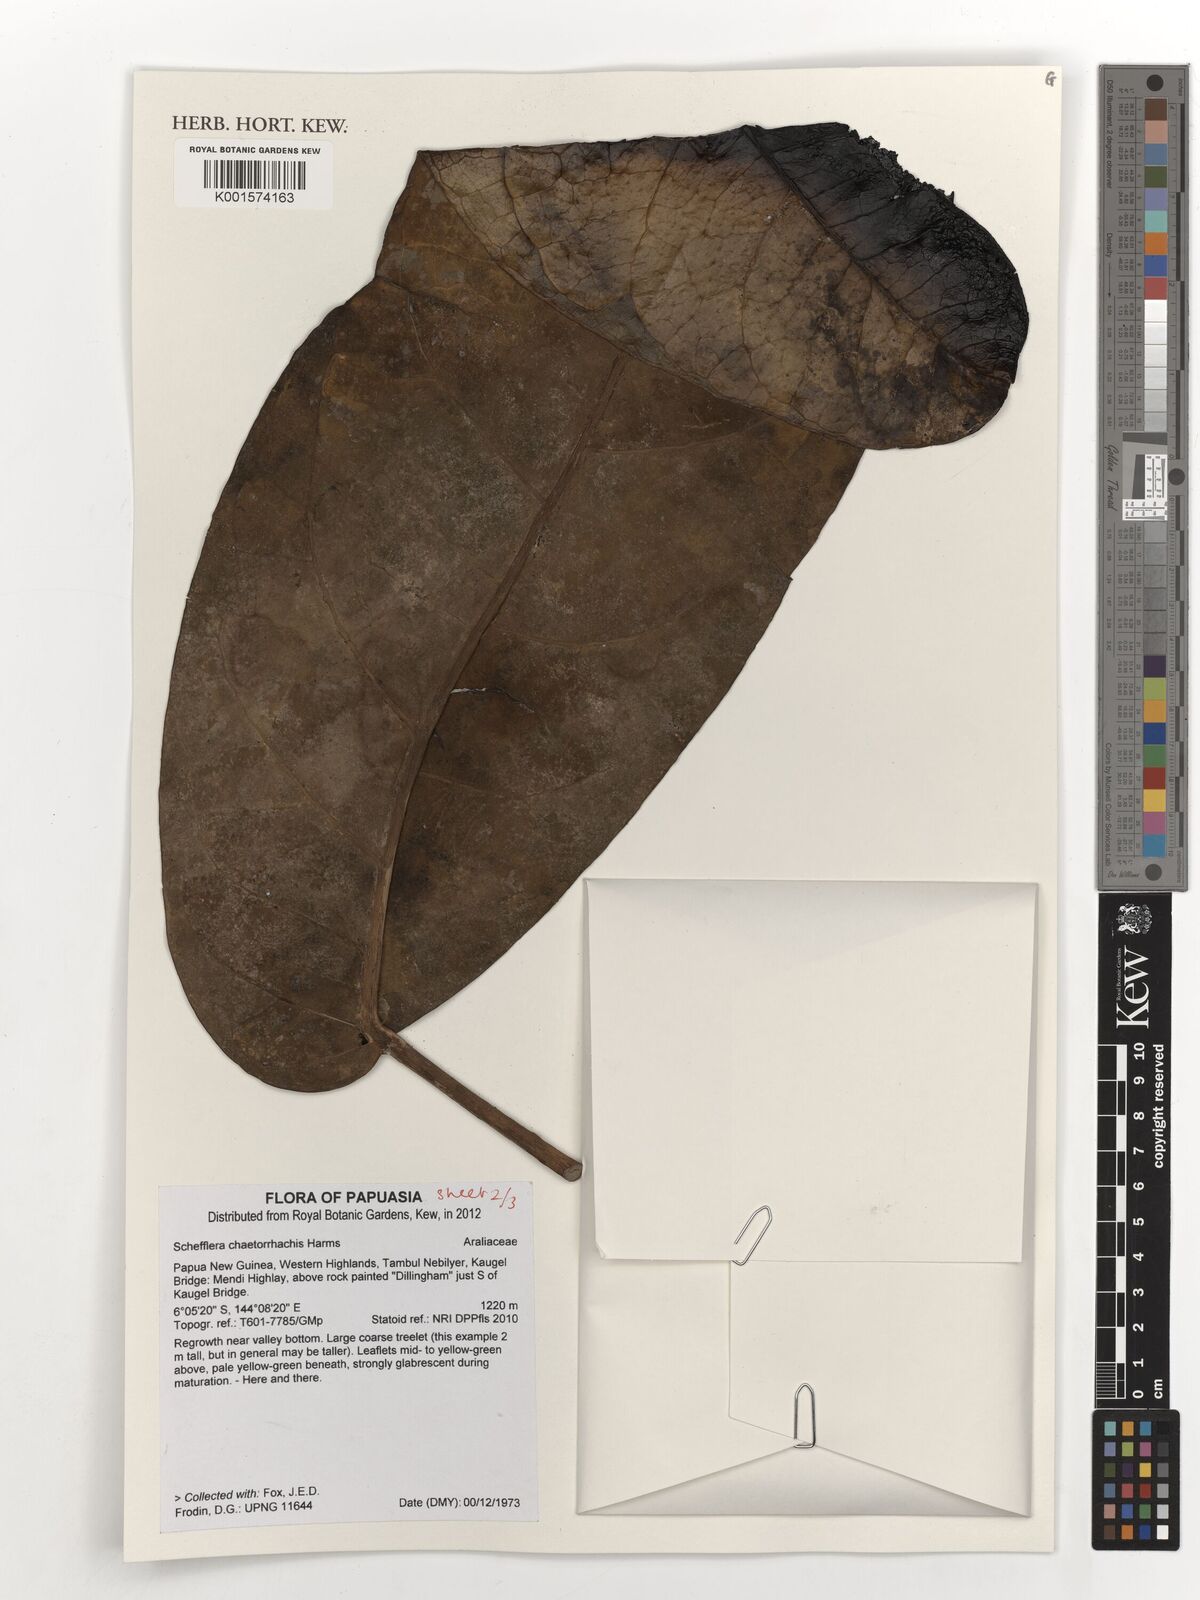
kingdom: Plantae
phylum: Tracheophyta
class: Magnoliopsida
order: Apiales
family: Araliaceae
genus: Heptapleurum
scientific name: Heptapleurum chaetorrhachis
